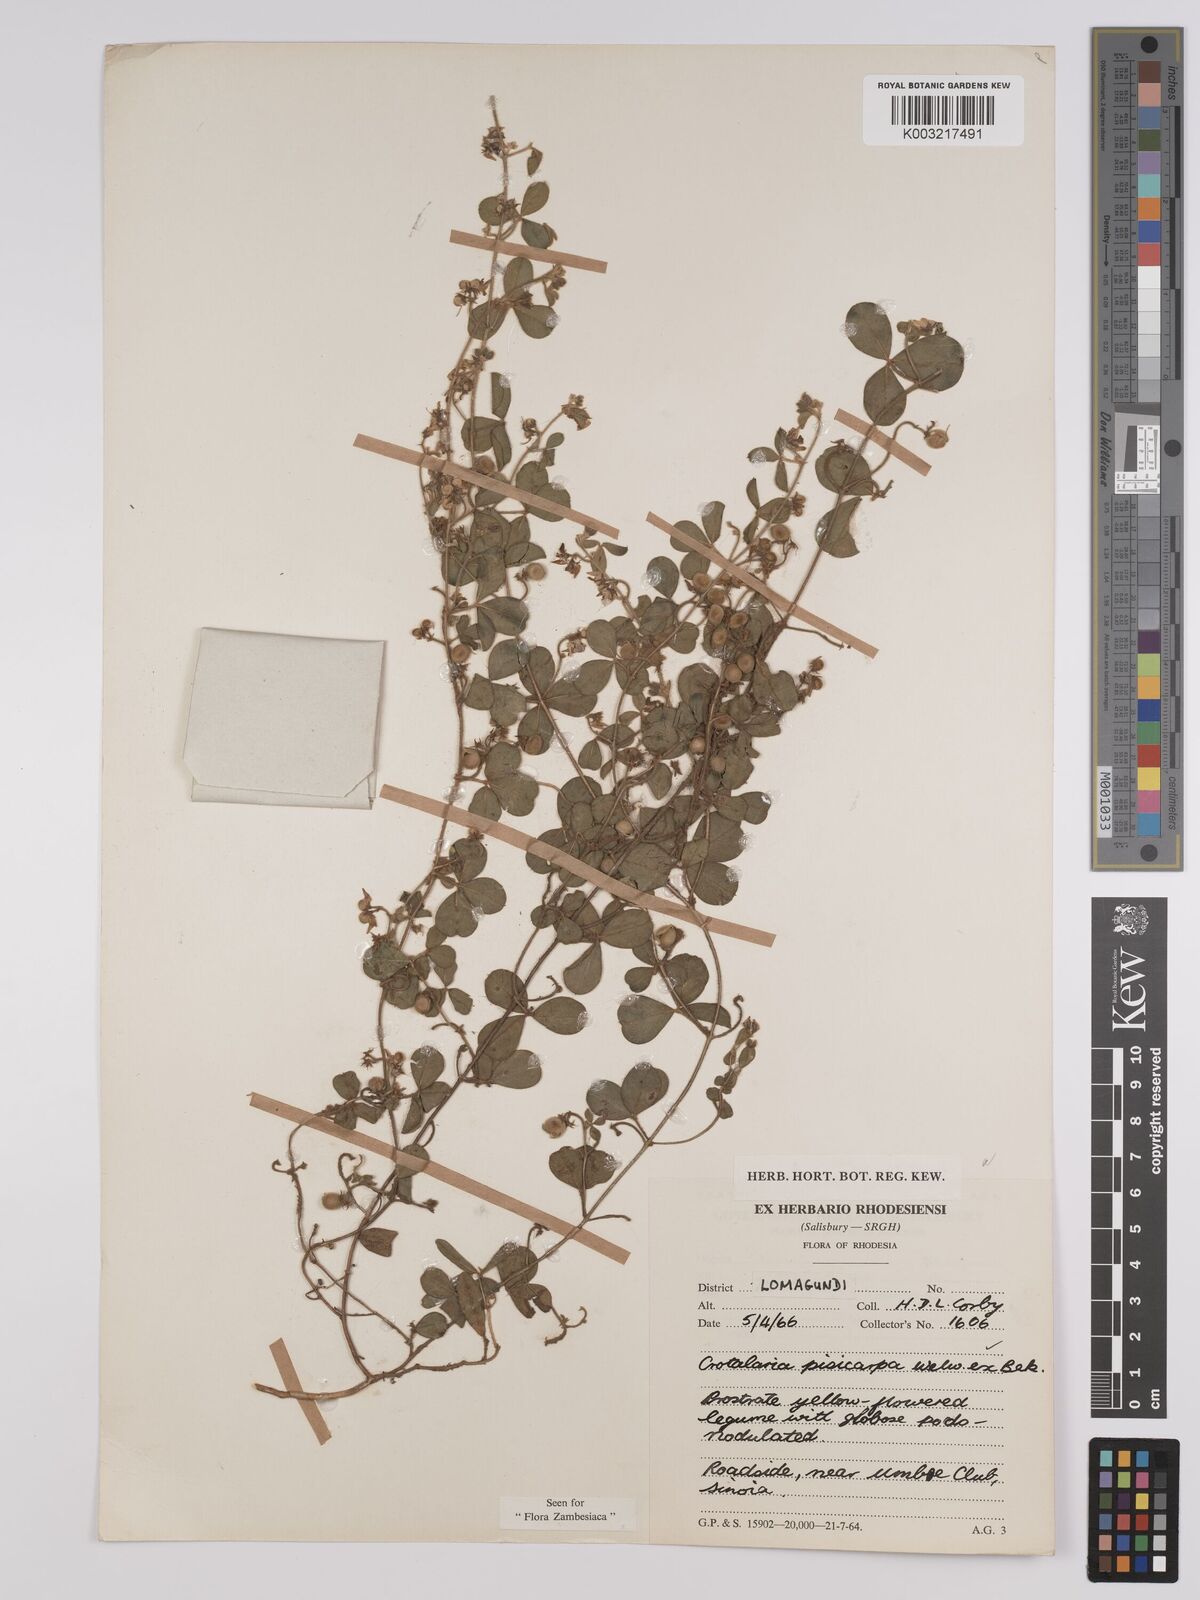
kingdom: Plantae
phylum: Tracheophyta
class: Magnoliopsida
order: Fabales
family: Fabaceae
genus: Crotalaria
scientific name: Crotalaria pisicarpa
